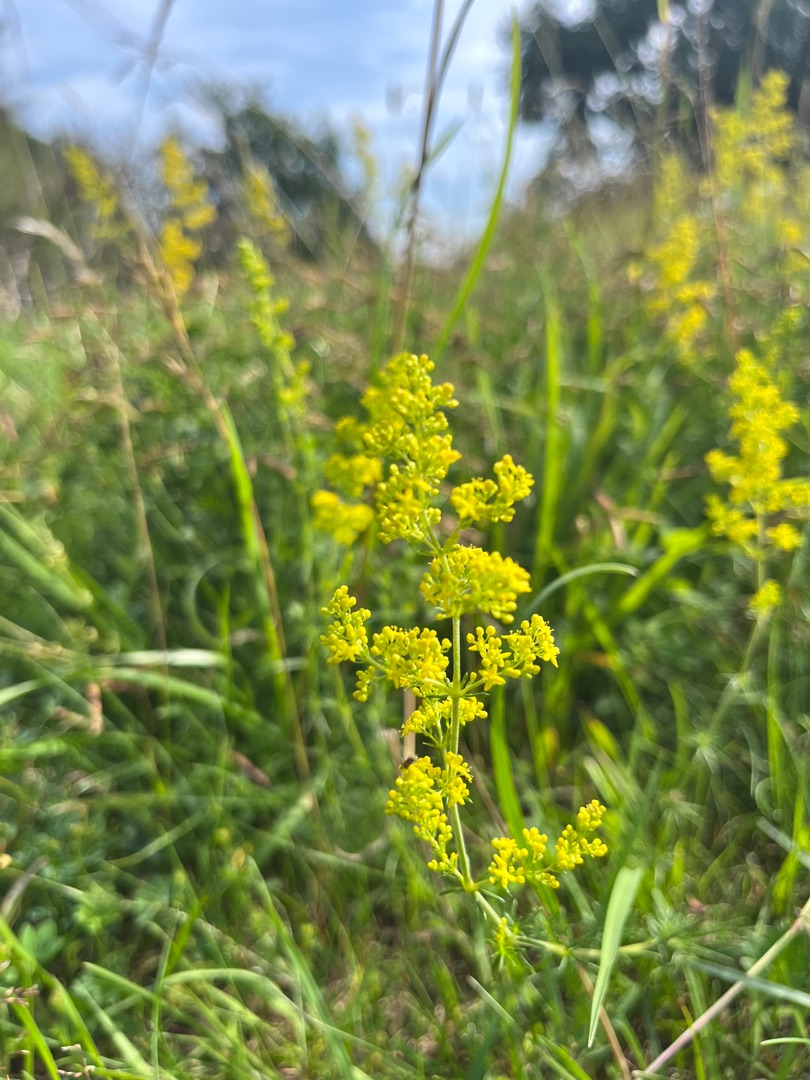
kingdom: Plantae
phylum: Tracheophyta
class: Magnoliopsida
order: Gentianales
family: Rubiaceae
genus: Galium
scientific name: Galium verum
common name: Gul snerre
